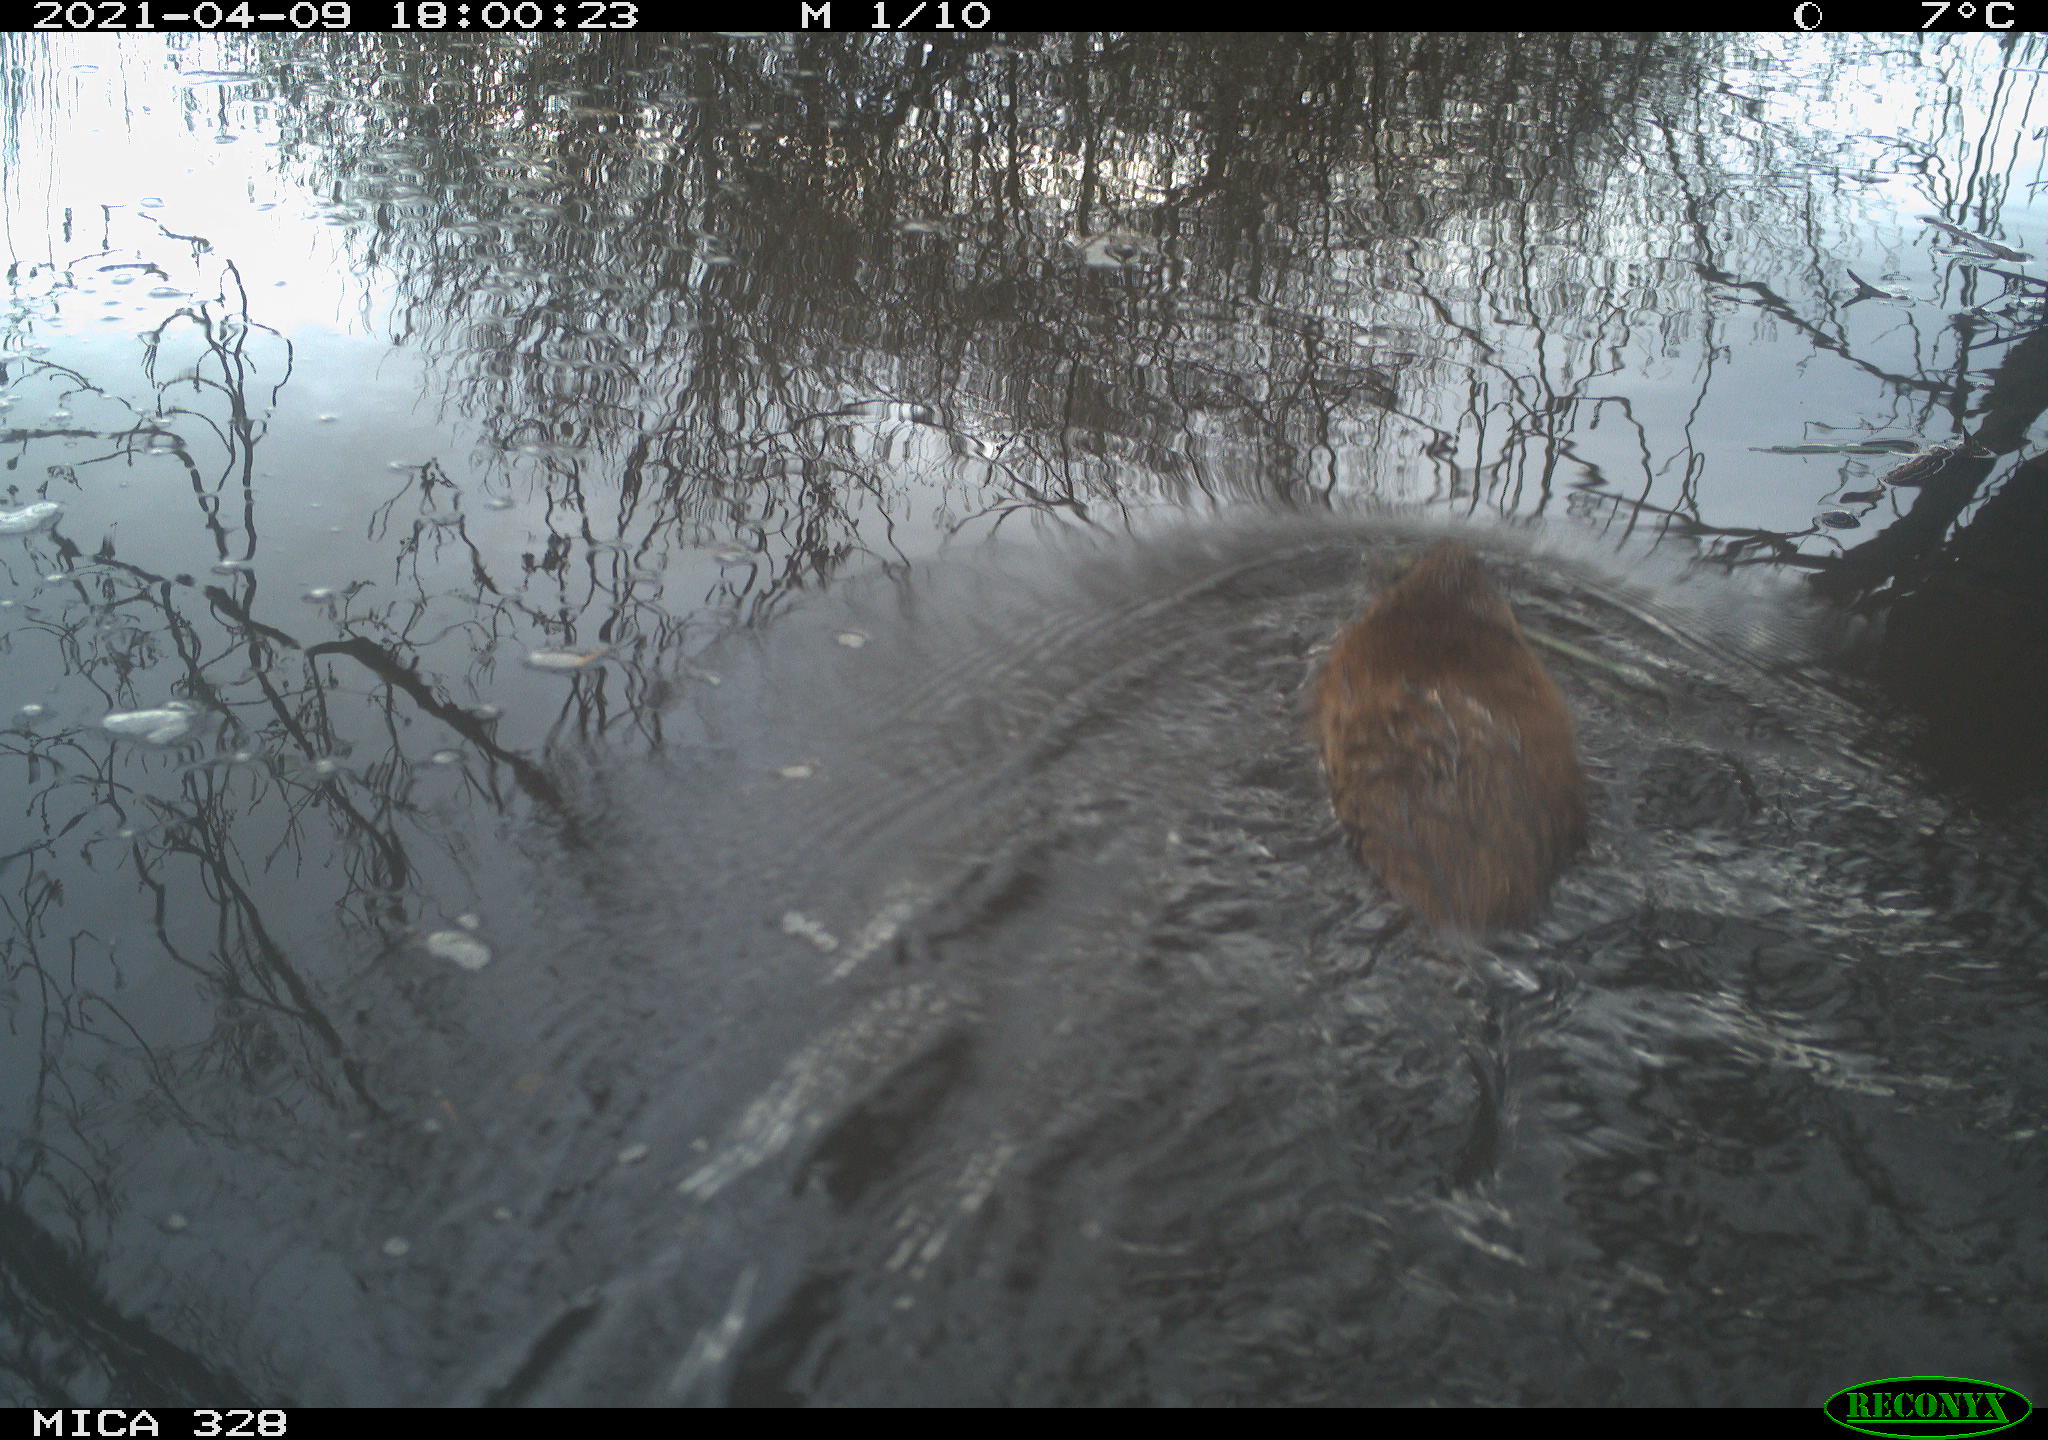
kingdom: Animalia
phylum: Chordata
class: Mammalia
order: Rodentia
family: Cricetidae
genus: Ondatra
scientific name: Ondatra zibethicus
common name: Muskrat
